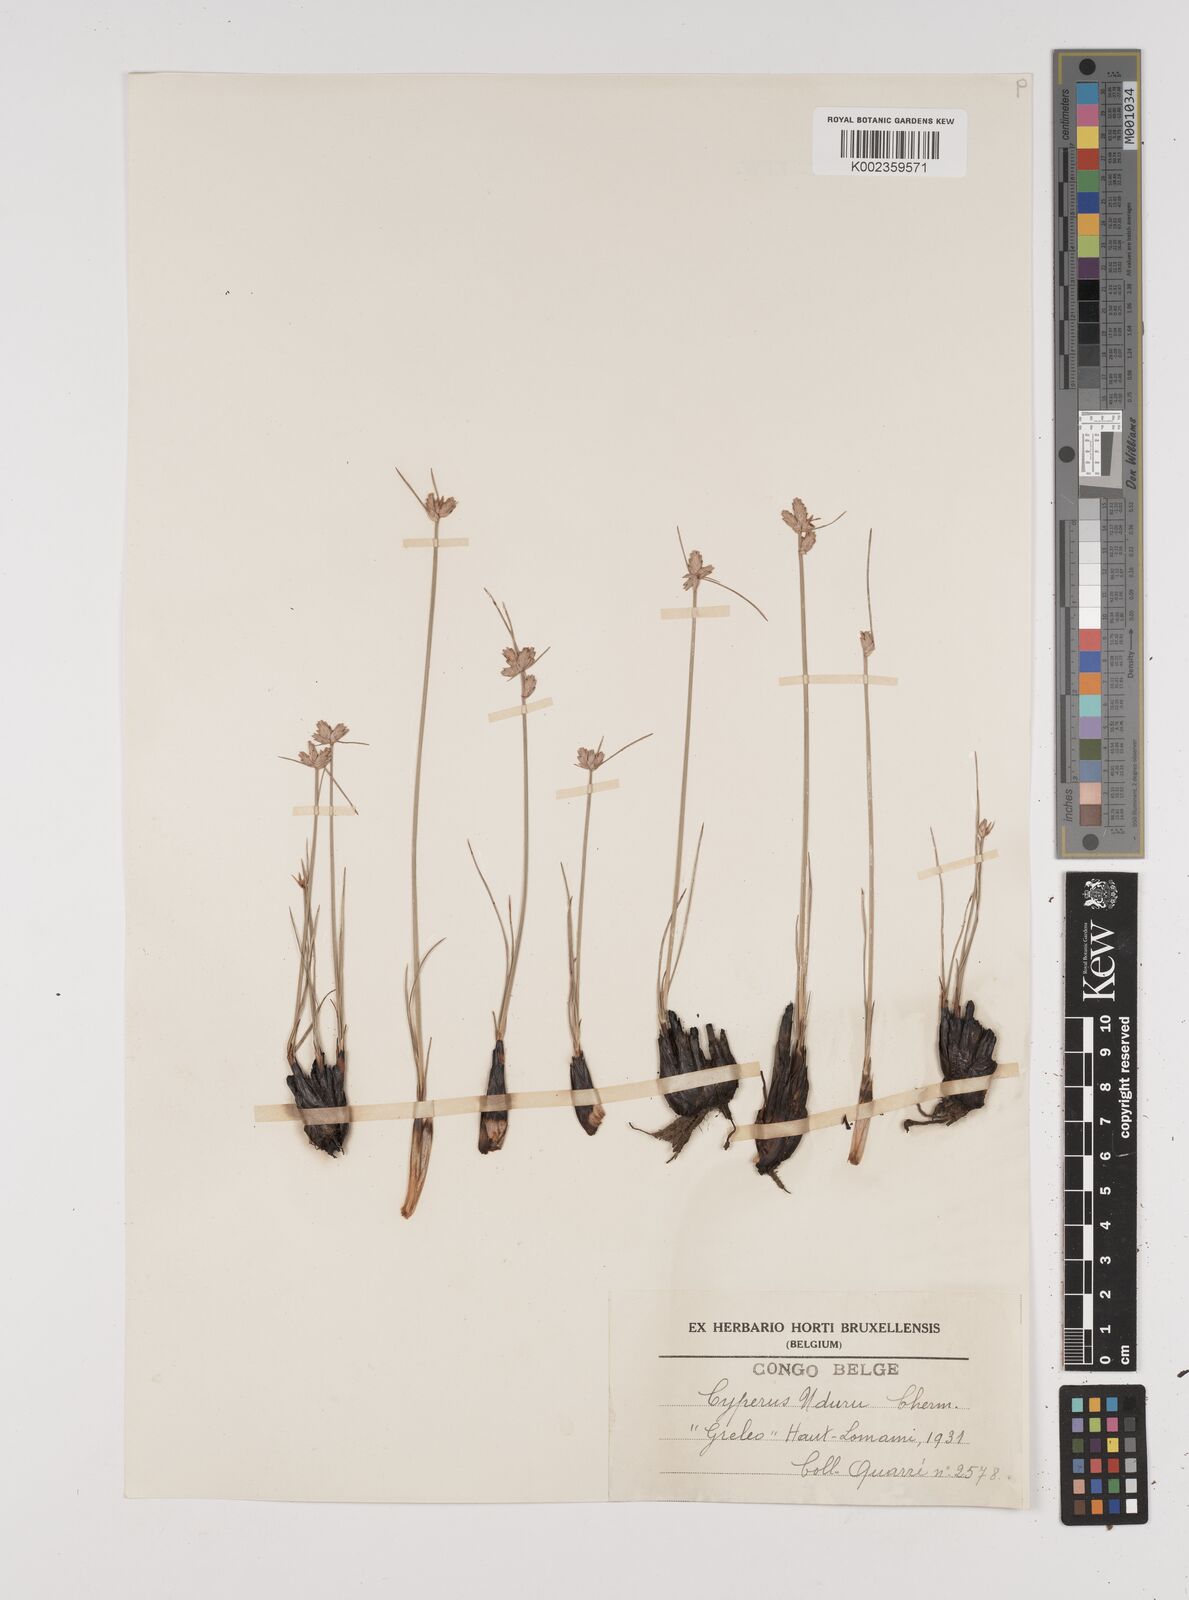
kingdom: Plantae
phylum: Tracheophyta
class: Liliopsida
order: Poales
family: Cyperaceae
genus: Cyperus
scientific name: Cyperus nduru
